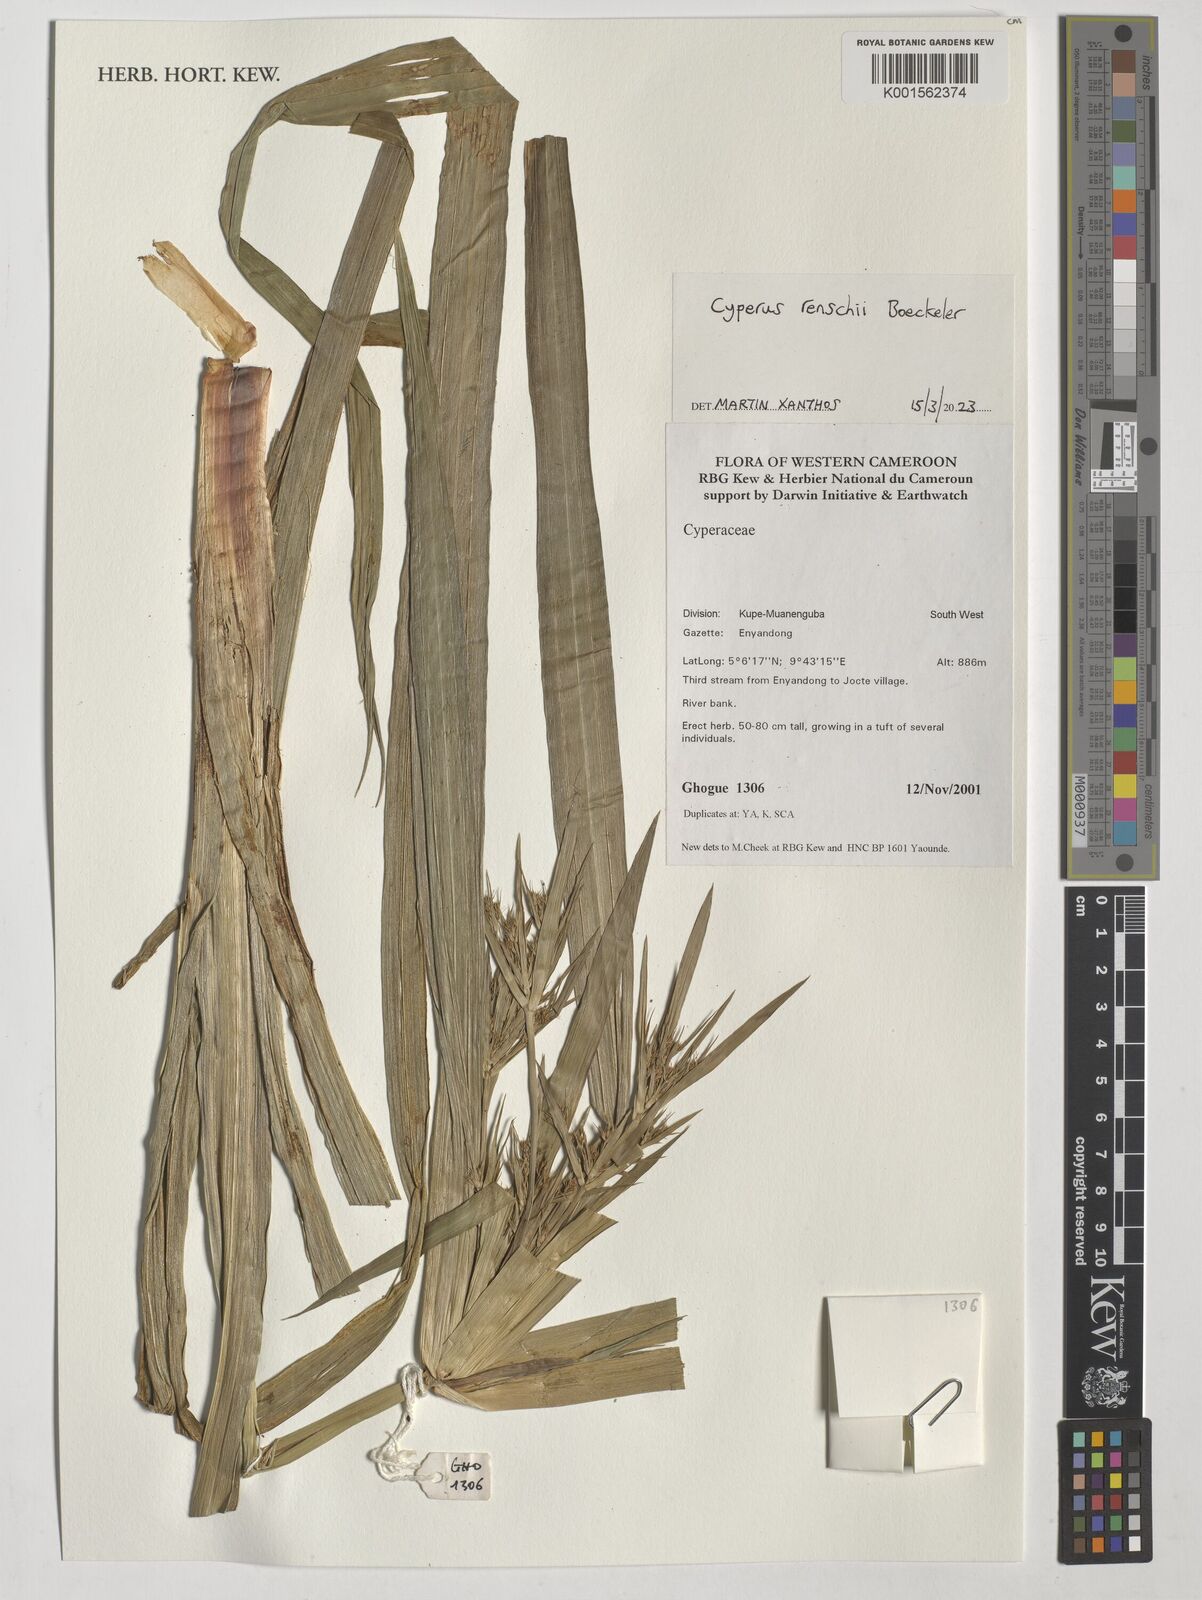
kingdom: Plantae
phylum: Tracheophyta
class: Liliopsida
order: Poales
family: Cyperaceae
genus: Cyperus
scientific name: Cyperus renschii
